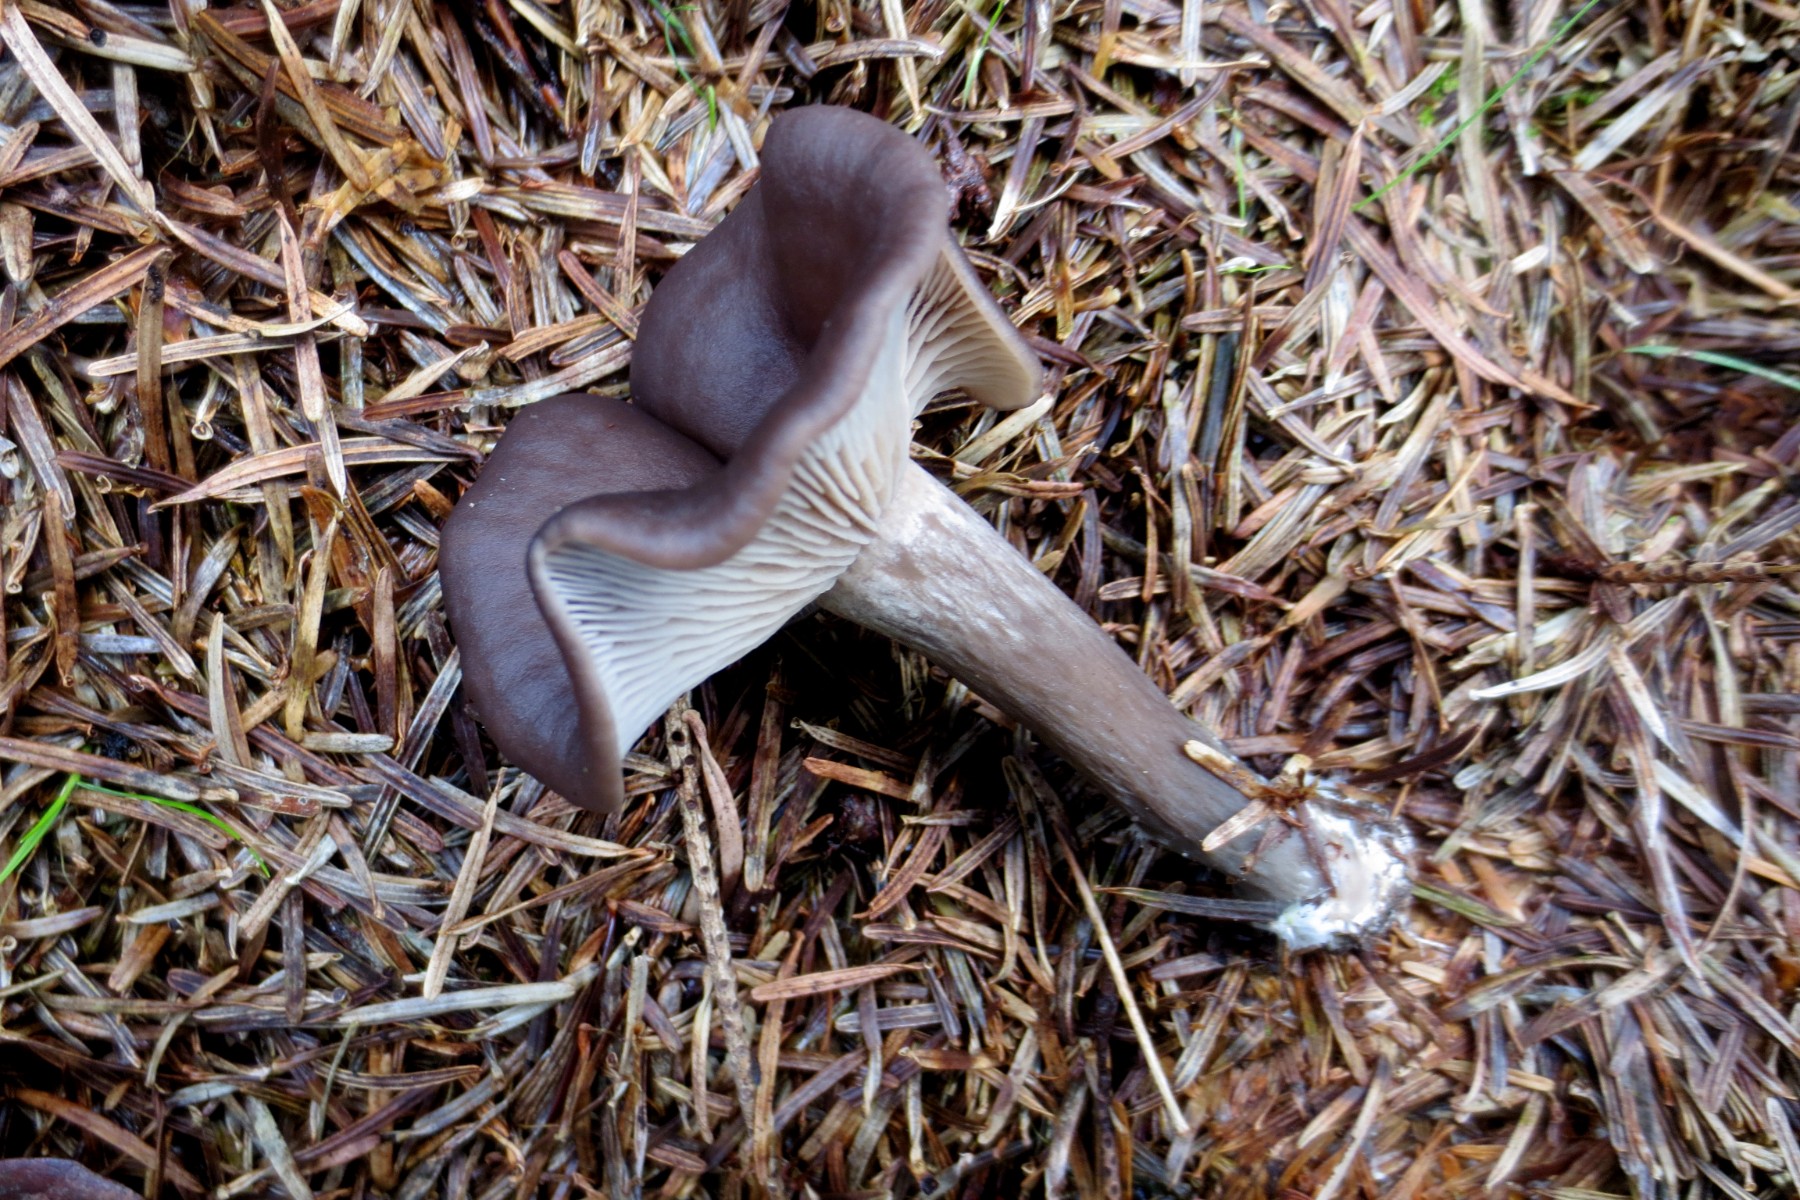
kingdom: Fungi
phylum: Basidiomycota
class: Agaricomycetes
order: Agaricales
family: Pseudoclitocybaceae
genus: Pseudoclitocybe
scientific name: Pseudoclitocybe cyathiformis
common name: almindelig bægertragthat
